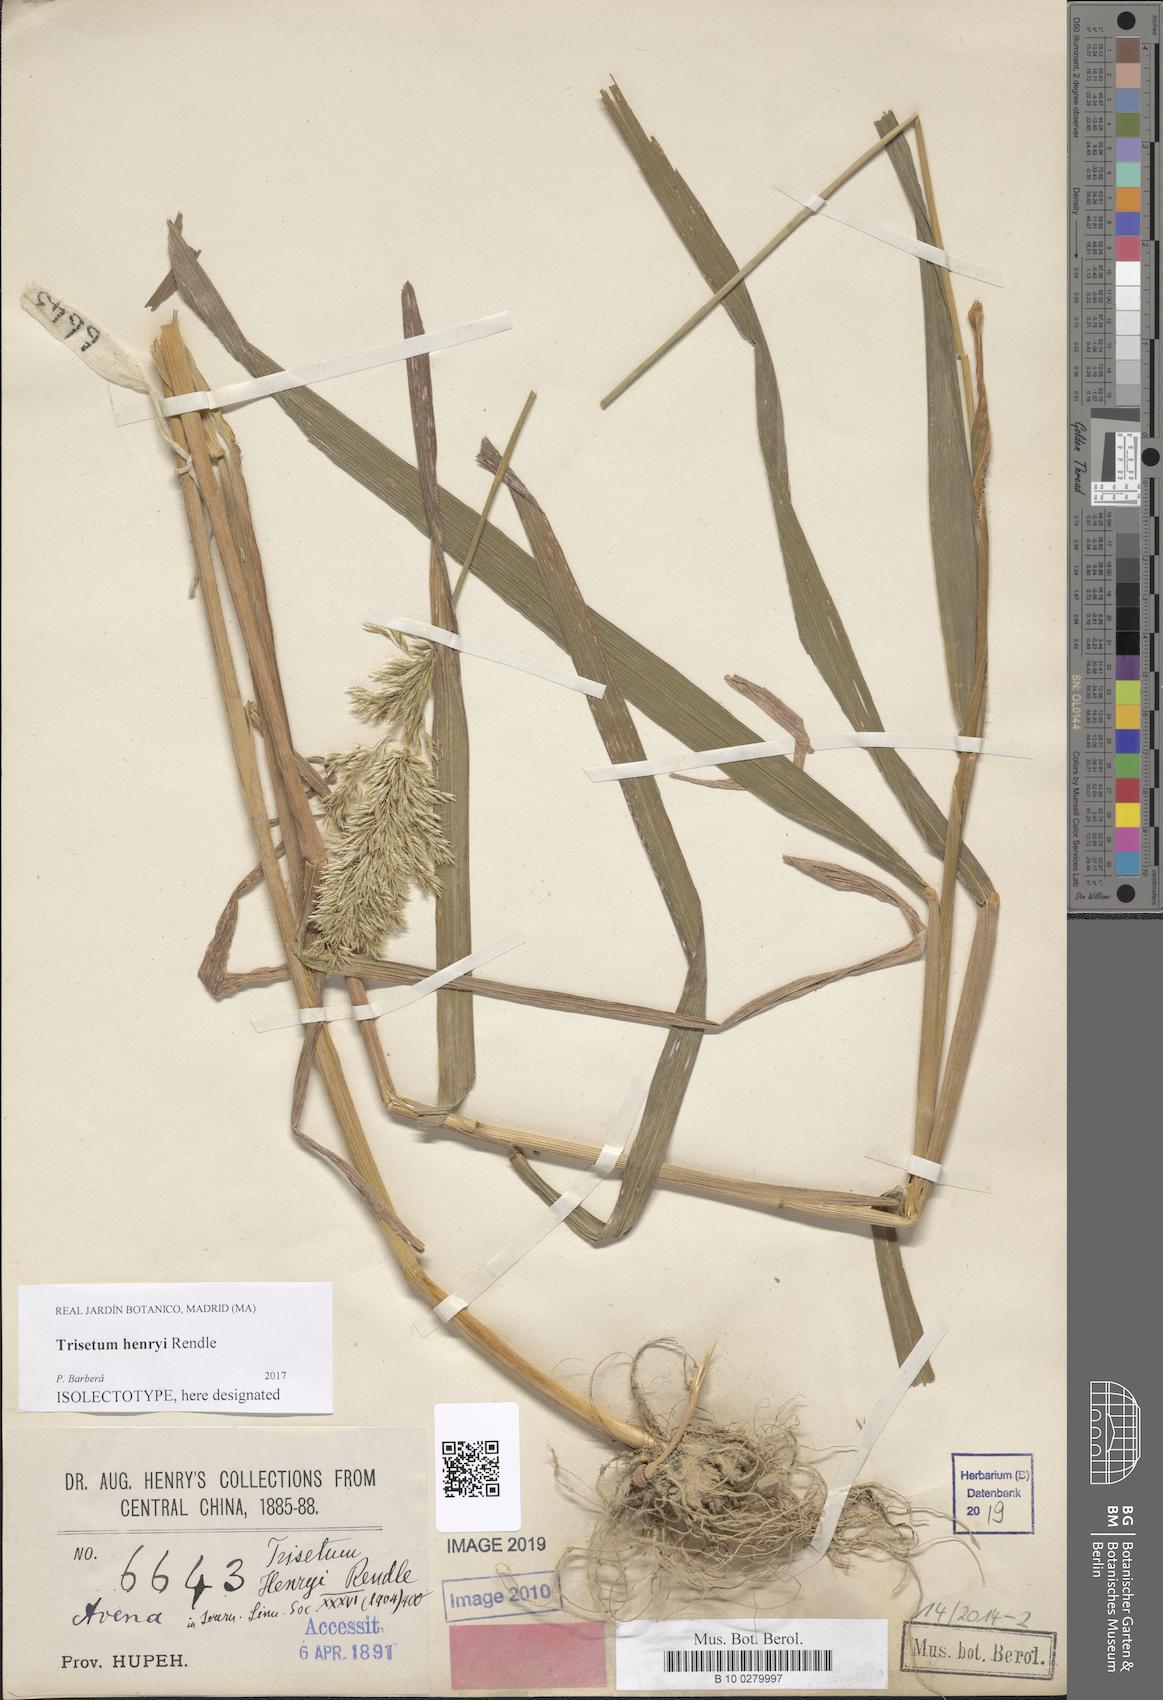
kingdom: Plantae
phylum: Tracheophyta
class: Liliopsida
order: Poales
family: Poaceae
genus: Sibirotrisetum
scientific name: Sibirotrisetum henryi
